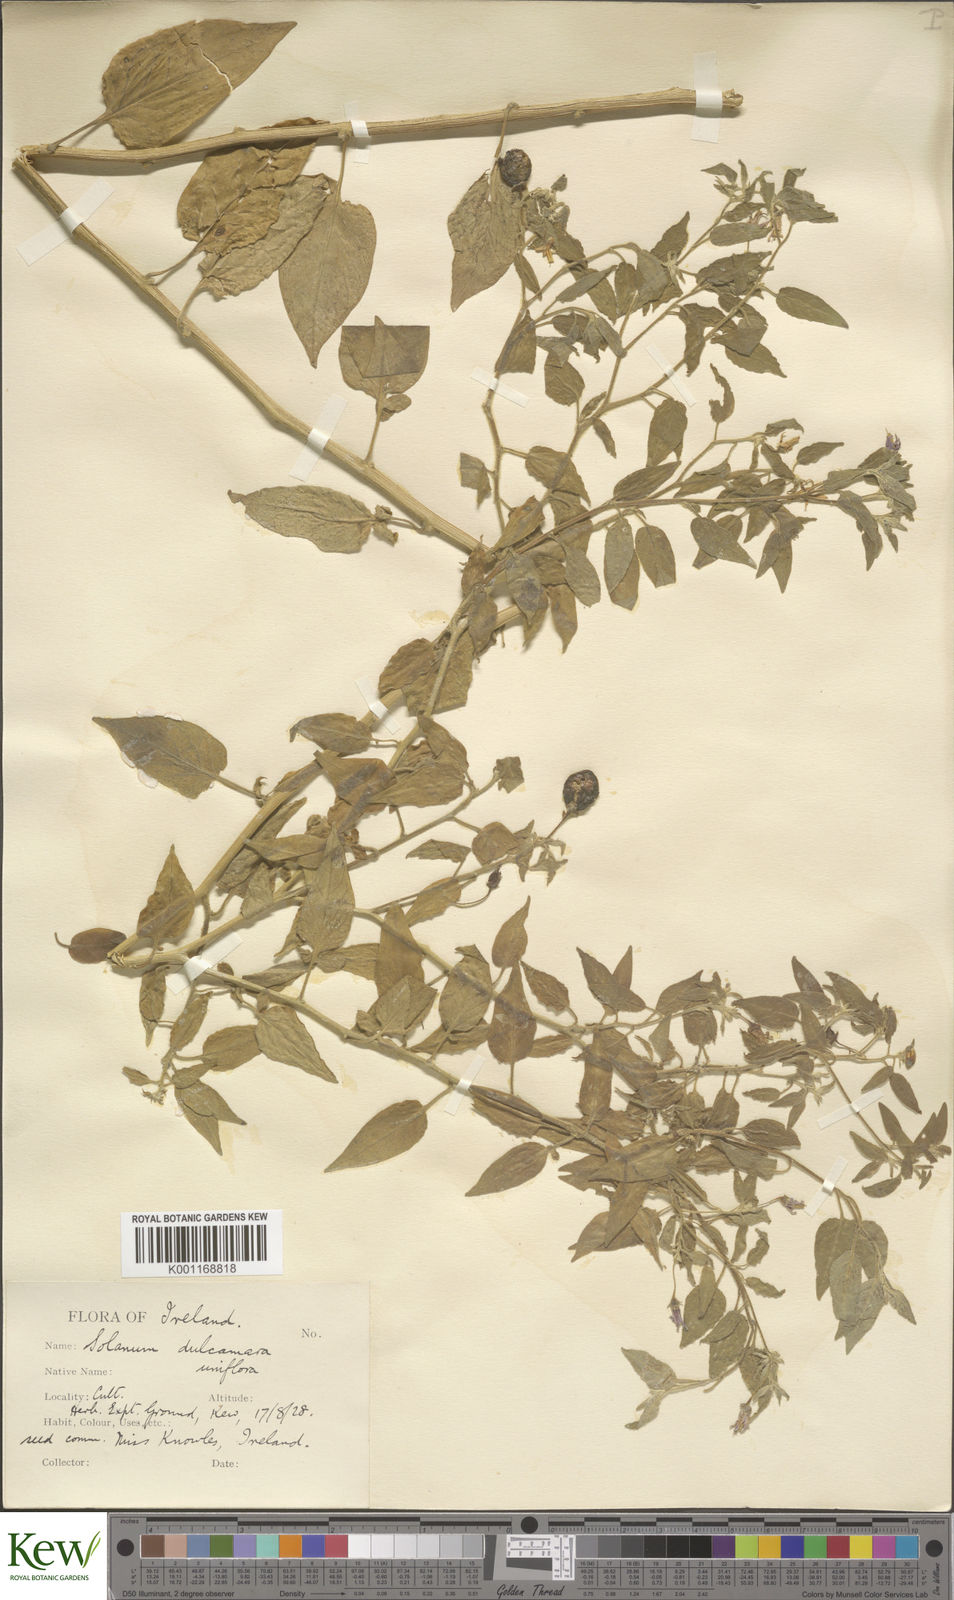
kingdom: Plantae
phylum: Tracheophyta
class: Magnoliopsida
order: Solanales
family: Solanaceae
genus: Solanum
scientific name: Solanum dulcamara
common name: Climbing nightshade
